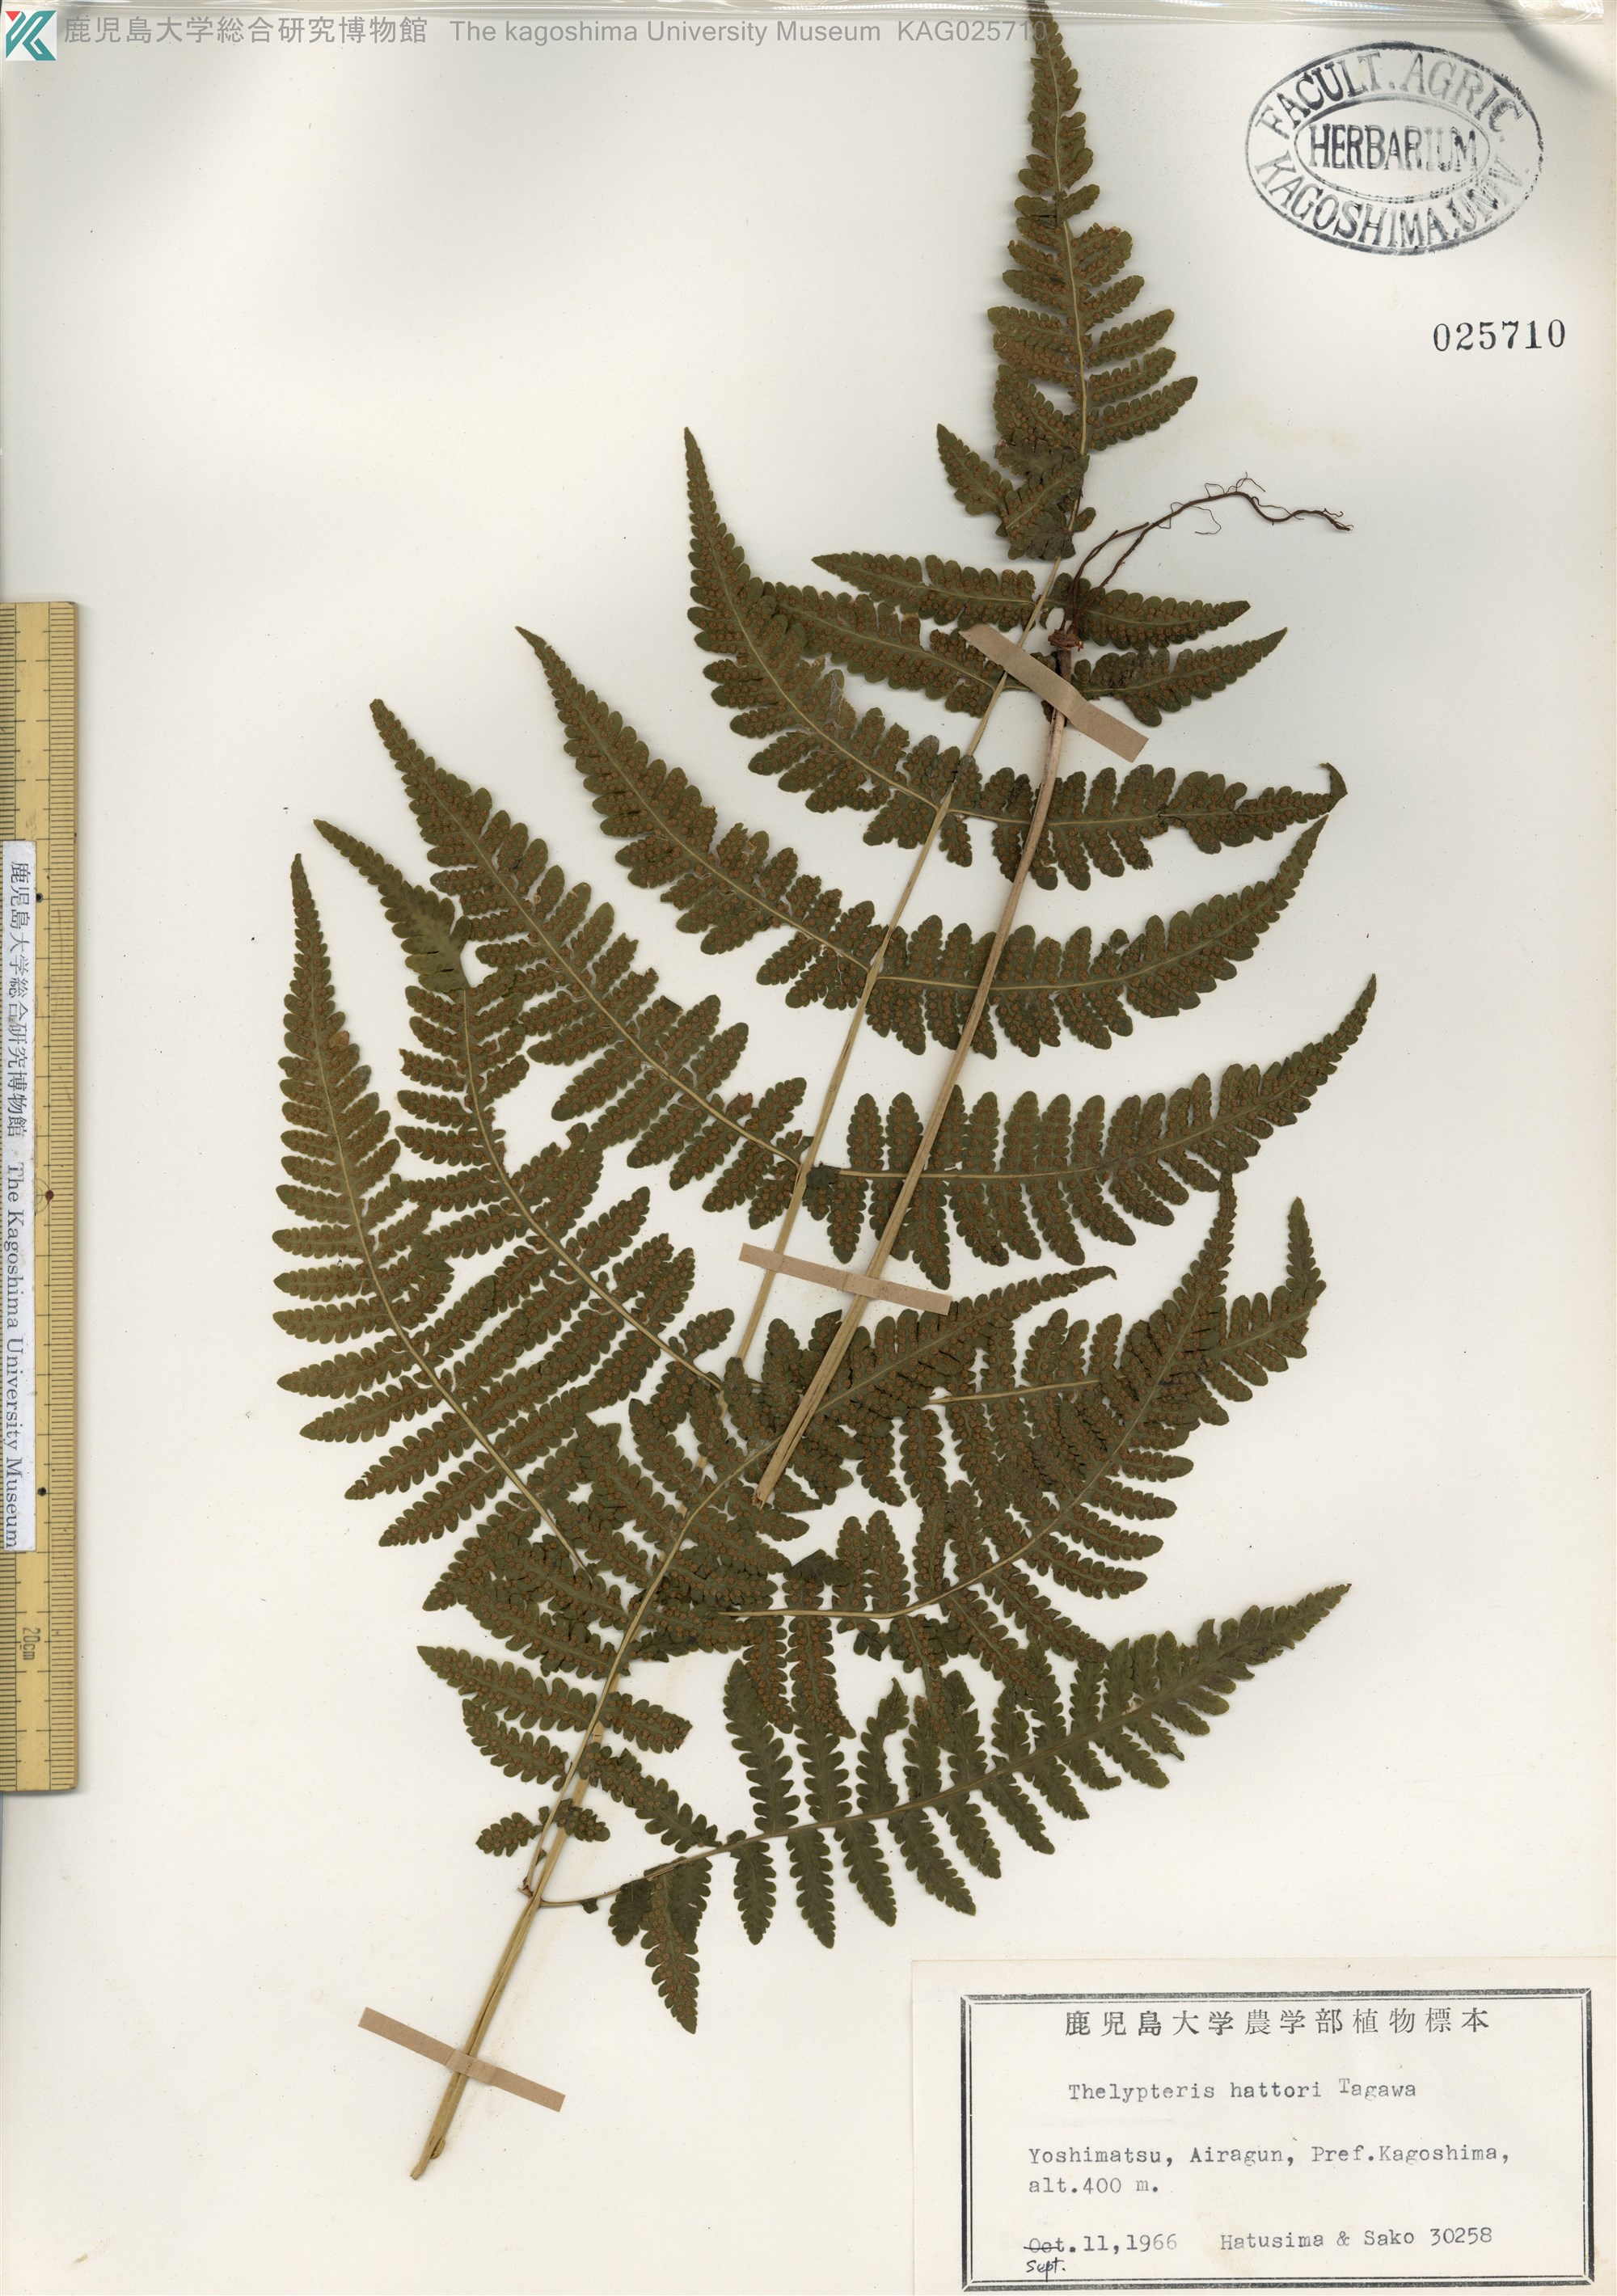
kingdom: Plantae
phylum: Tracheophyta
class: Polypodiopsida
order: Polypodiales
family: Thelypteridaceae
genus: Metathelypteris
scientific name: Metathelypteris hattori
